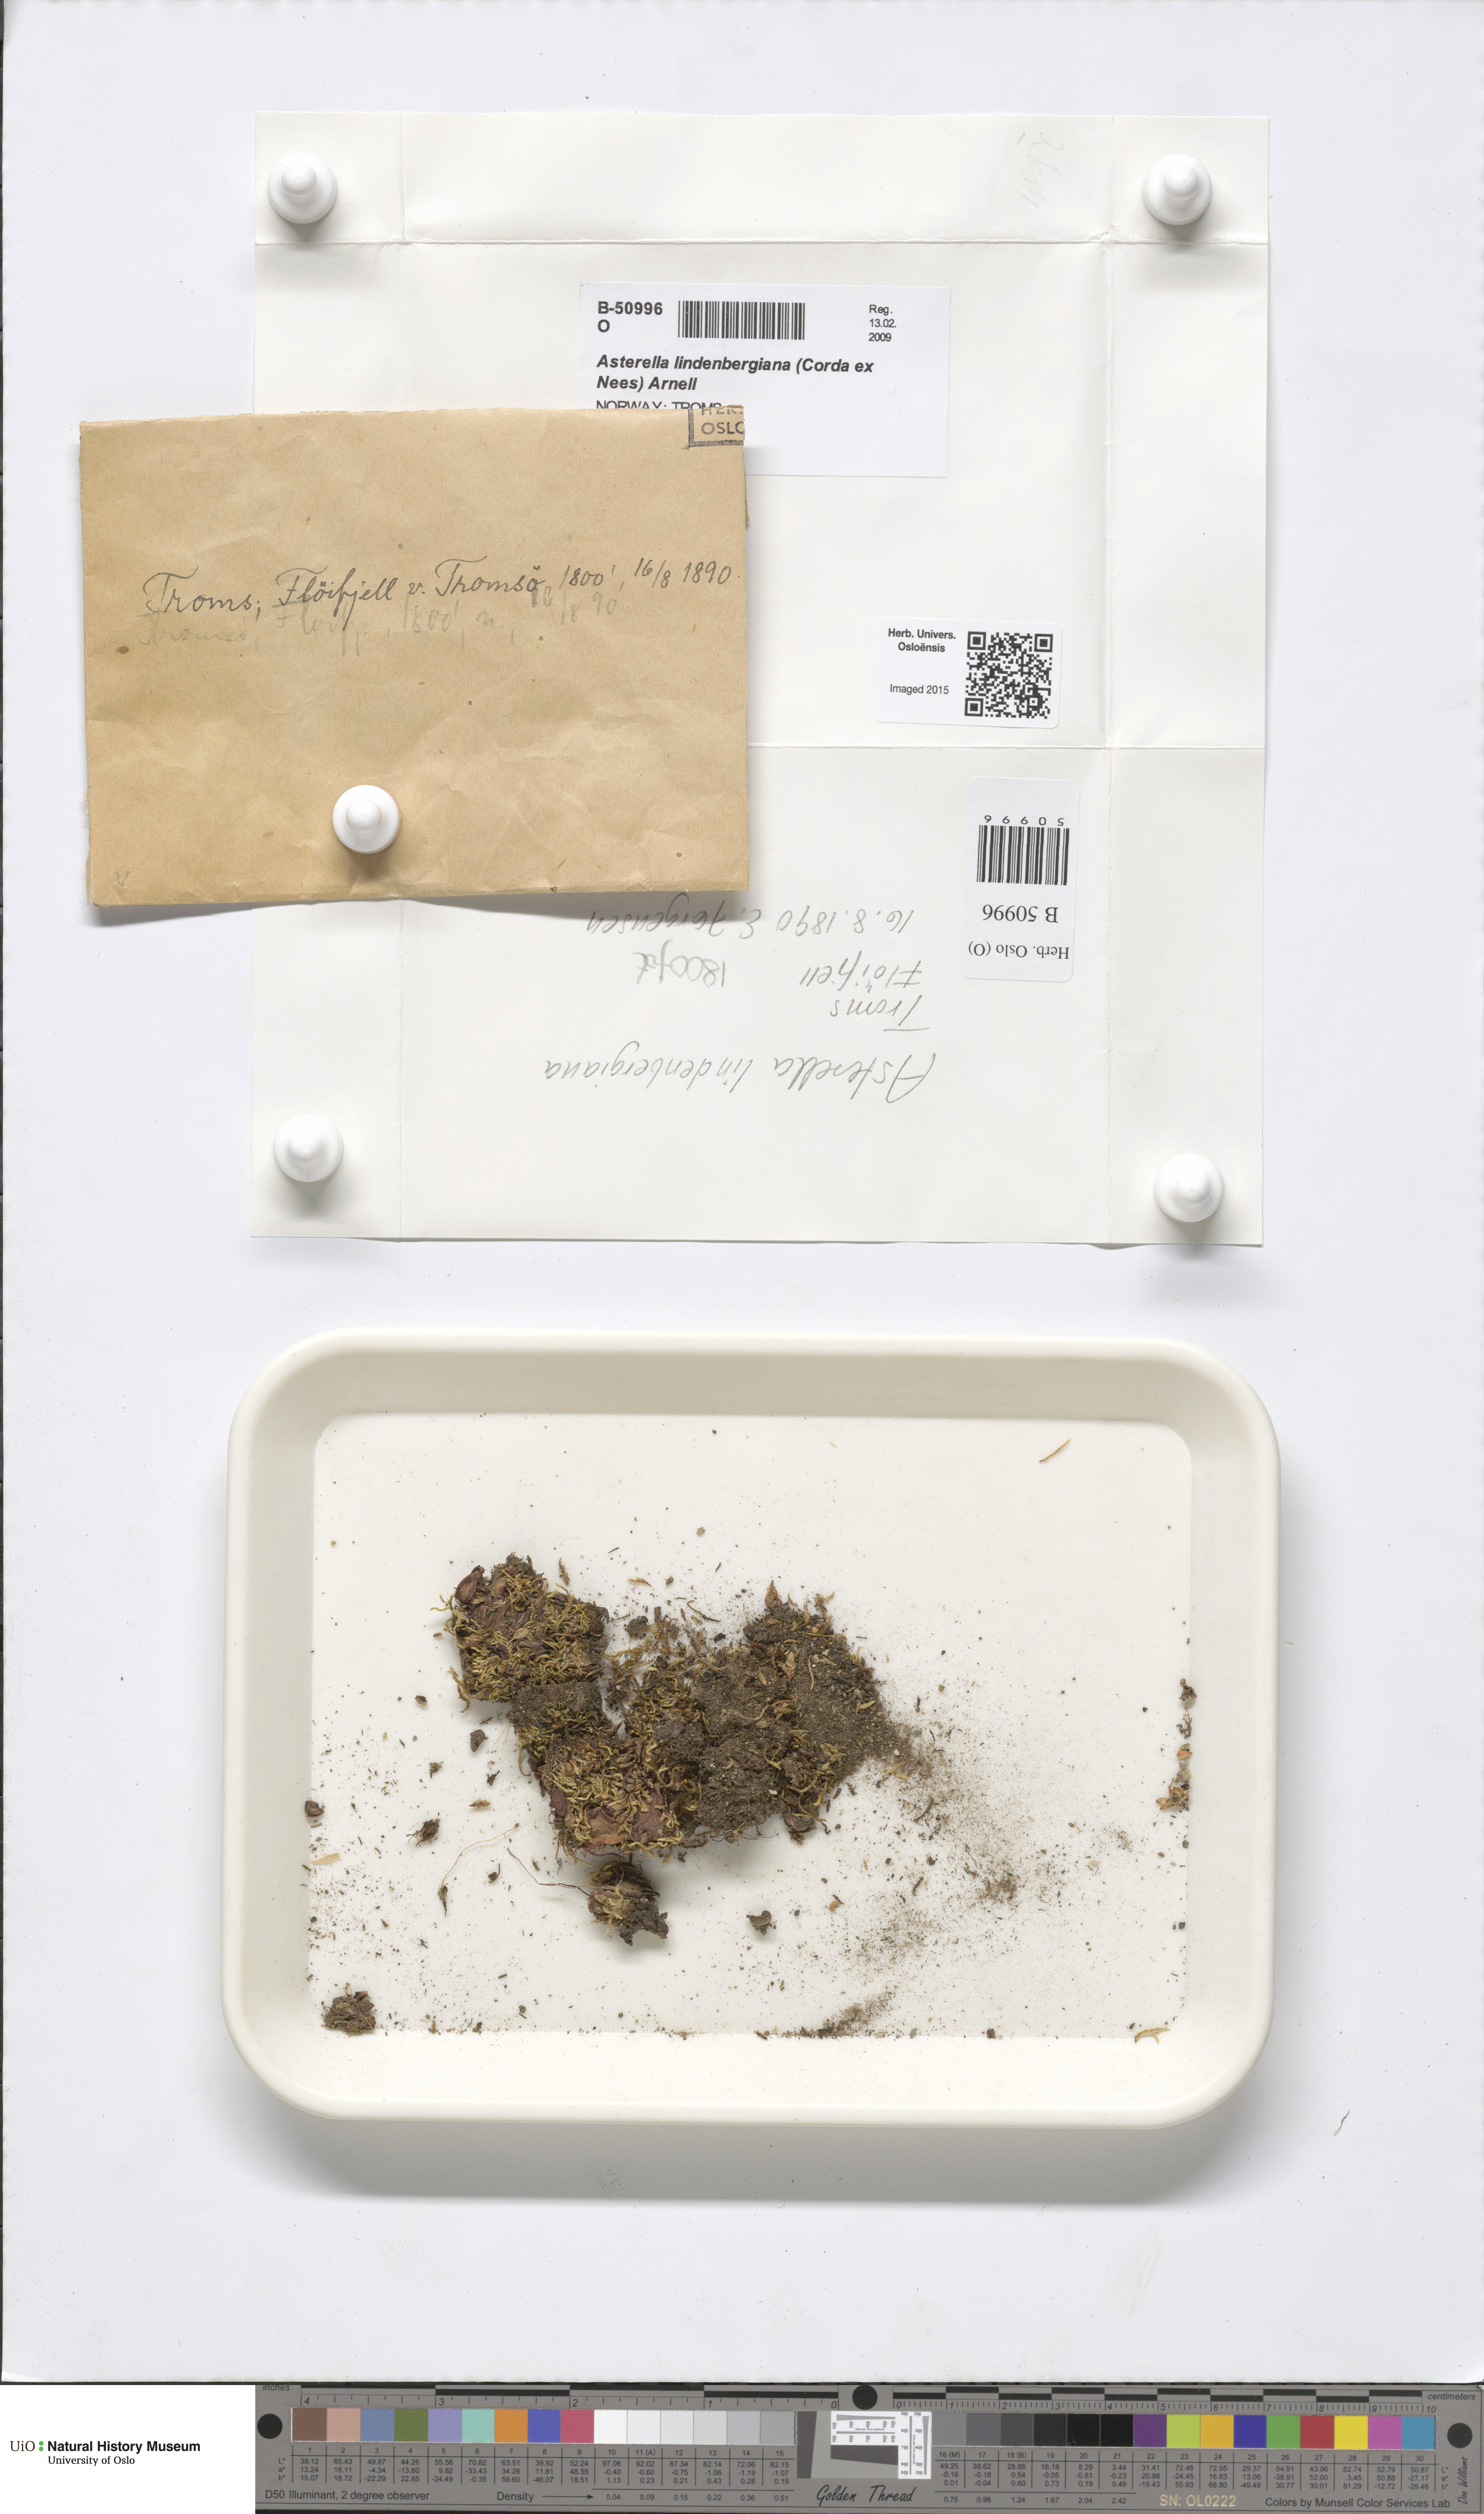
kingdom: Plantae
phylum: Marchantiophyta
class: Marchantiopsida
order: Marchantiales
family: Aytoniaceae
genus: Asterella
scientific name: Asterella lindenbergiana
